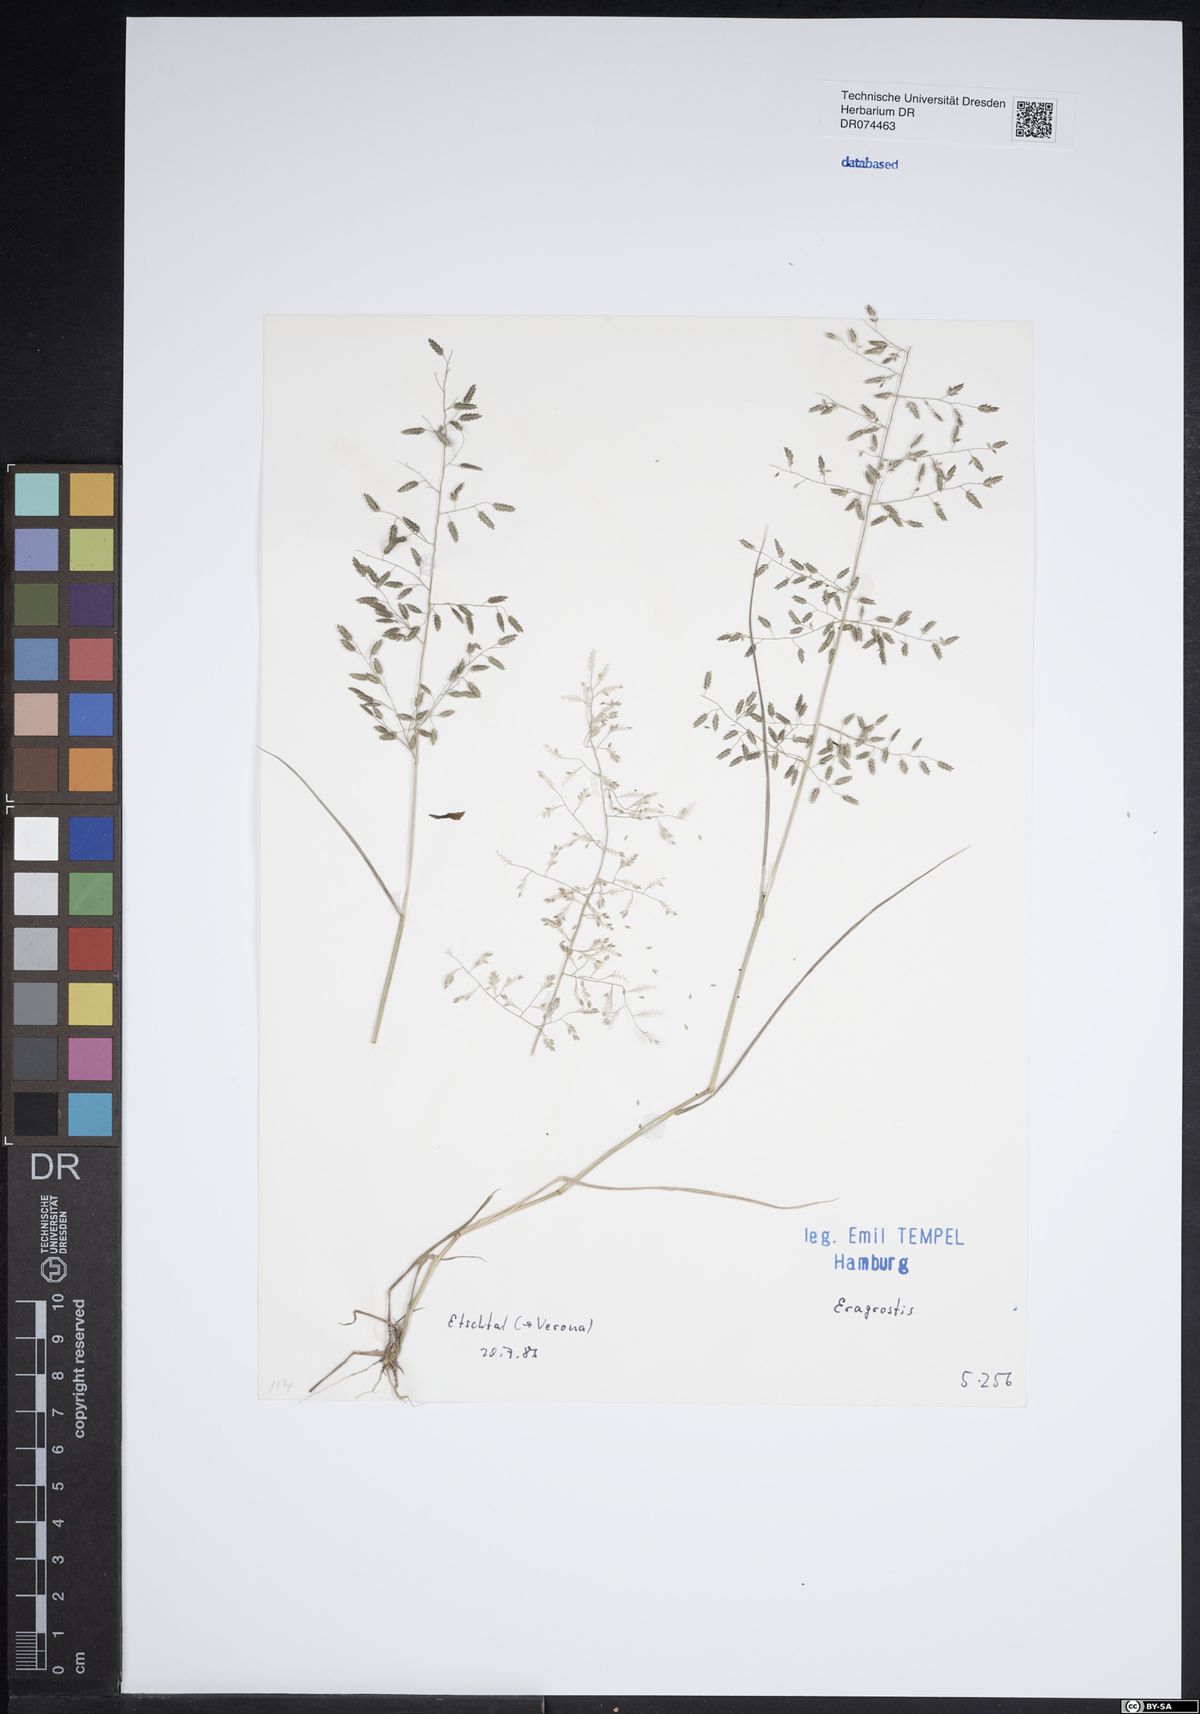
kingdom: Plantae
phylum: Tracheophyta
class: Liliopsida
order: Poales
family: Poaceae
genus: Eragrostis
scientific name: Eragrostis
